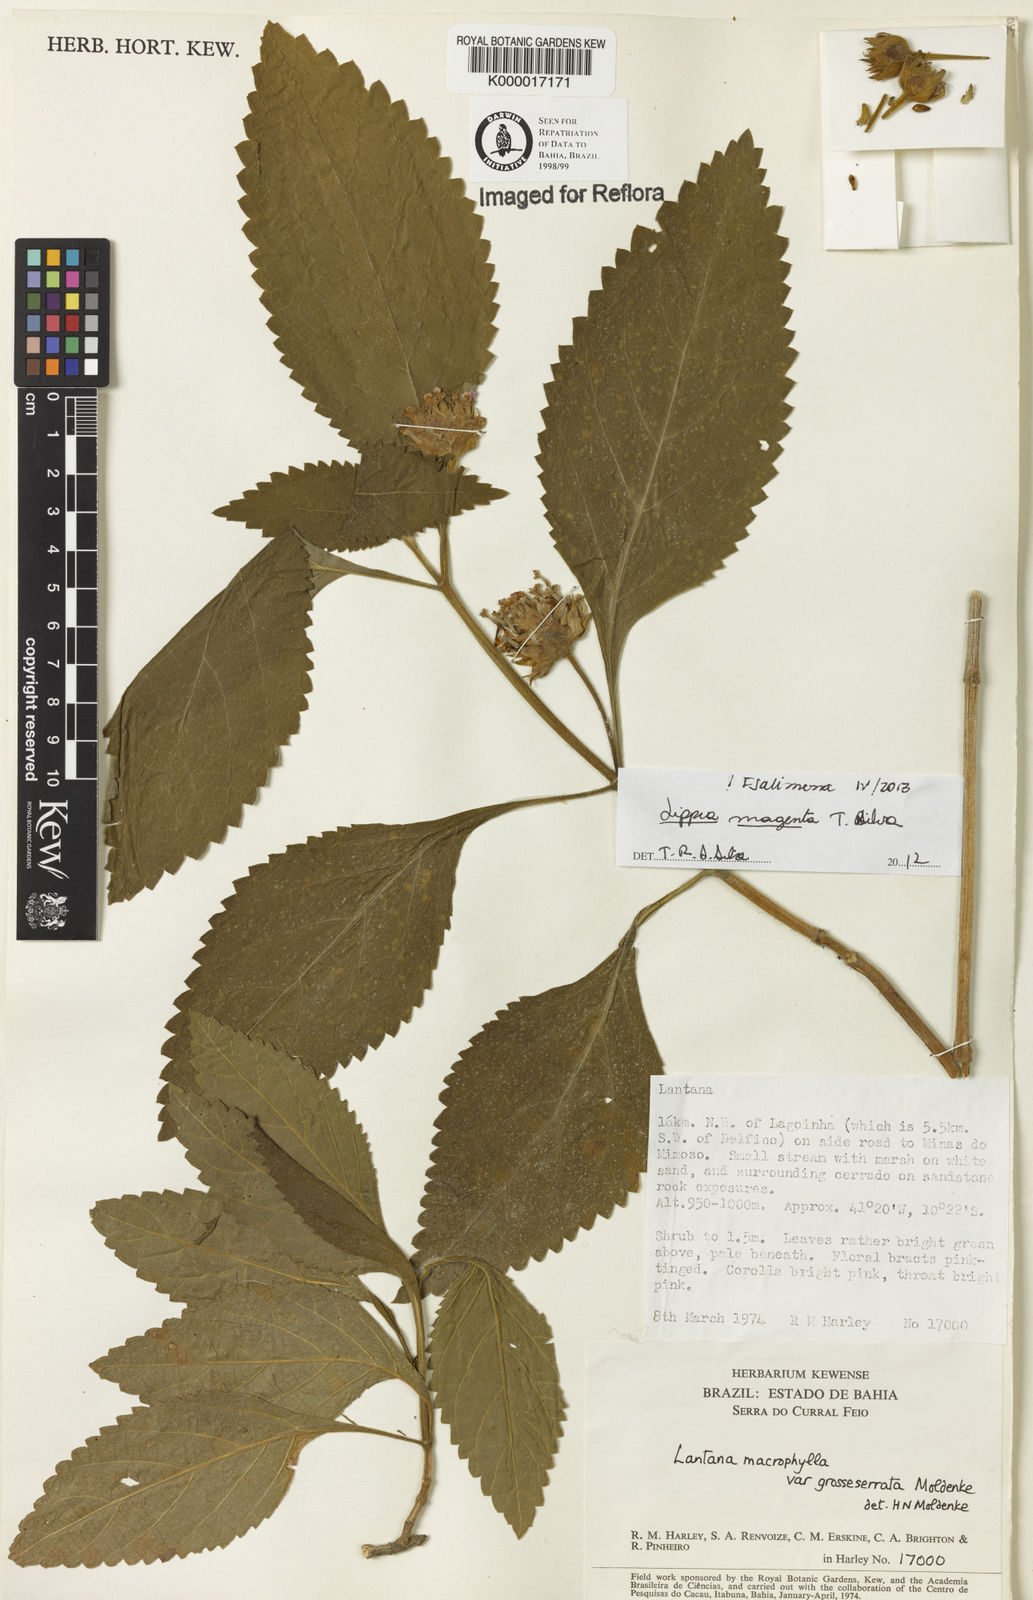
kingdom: Plantae
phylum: Tracheophyta
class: Magnoliopsida
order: Lamiales
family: Verbenaceae
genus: Lippia
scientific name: Lippia
